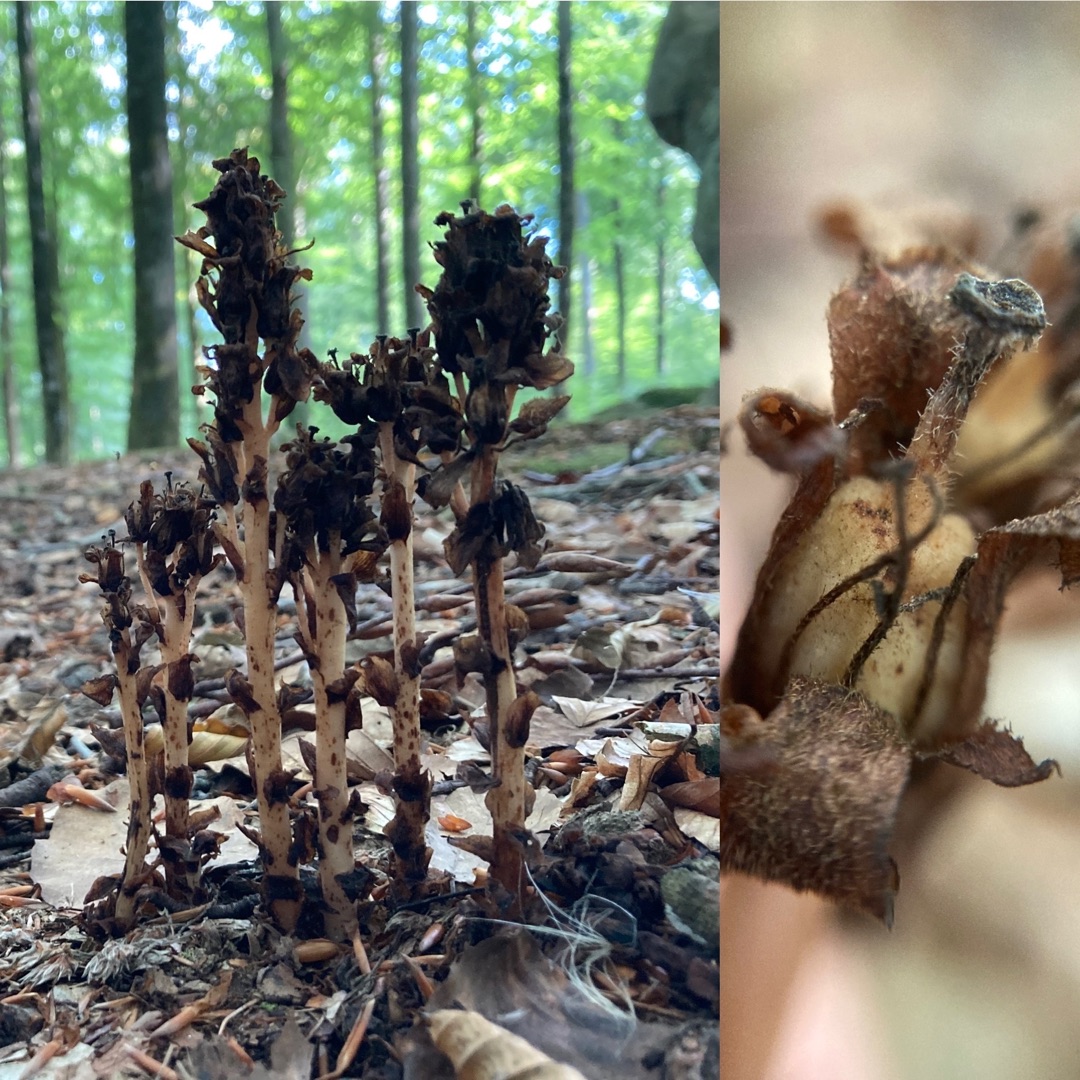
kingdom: Plantae
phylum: Tracheophyta
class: Magnoliopsida
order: Ericales
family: Ericaceae
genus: Hypopitys
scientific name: Hypopitys monotropa
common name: Håret snylterod
